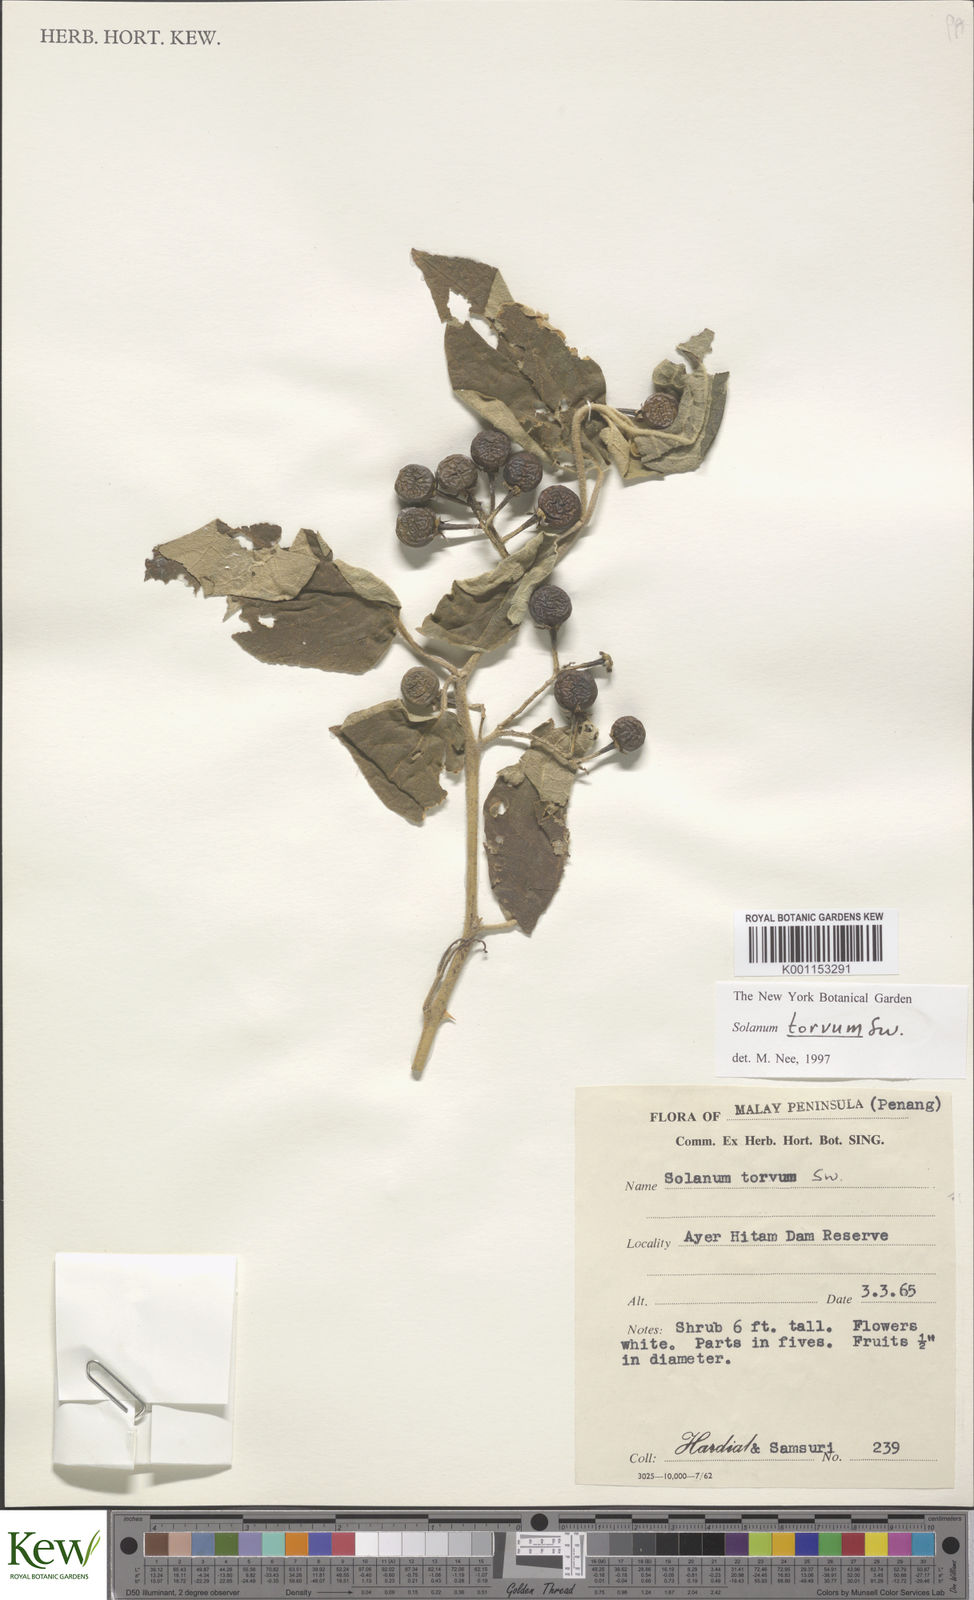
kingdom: Plantae
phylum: Tracheophyta
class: Magnoliopsida
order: Solanales
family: Solanaceae
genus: Solanum
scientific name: Solanum torvum
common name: Turkey berry
